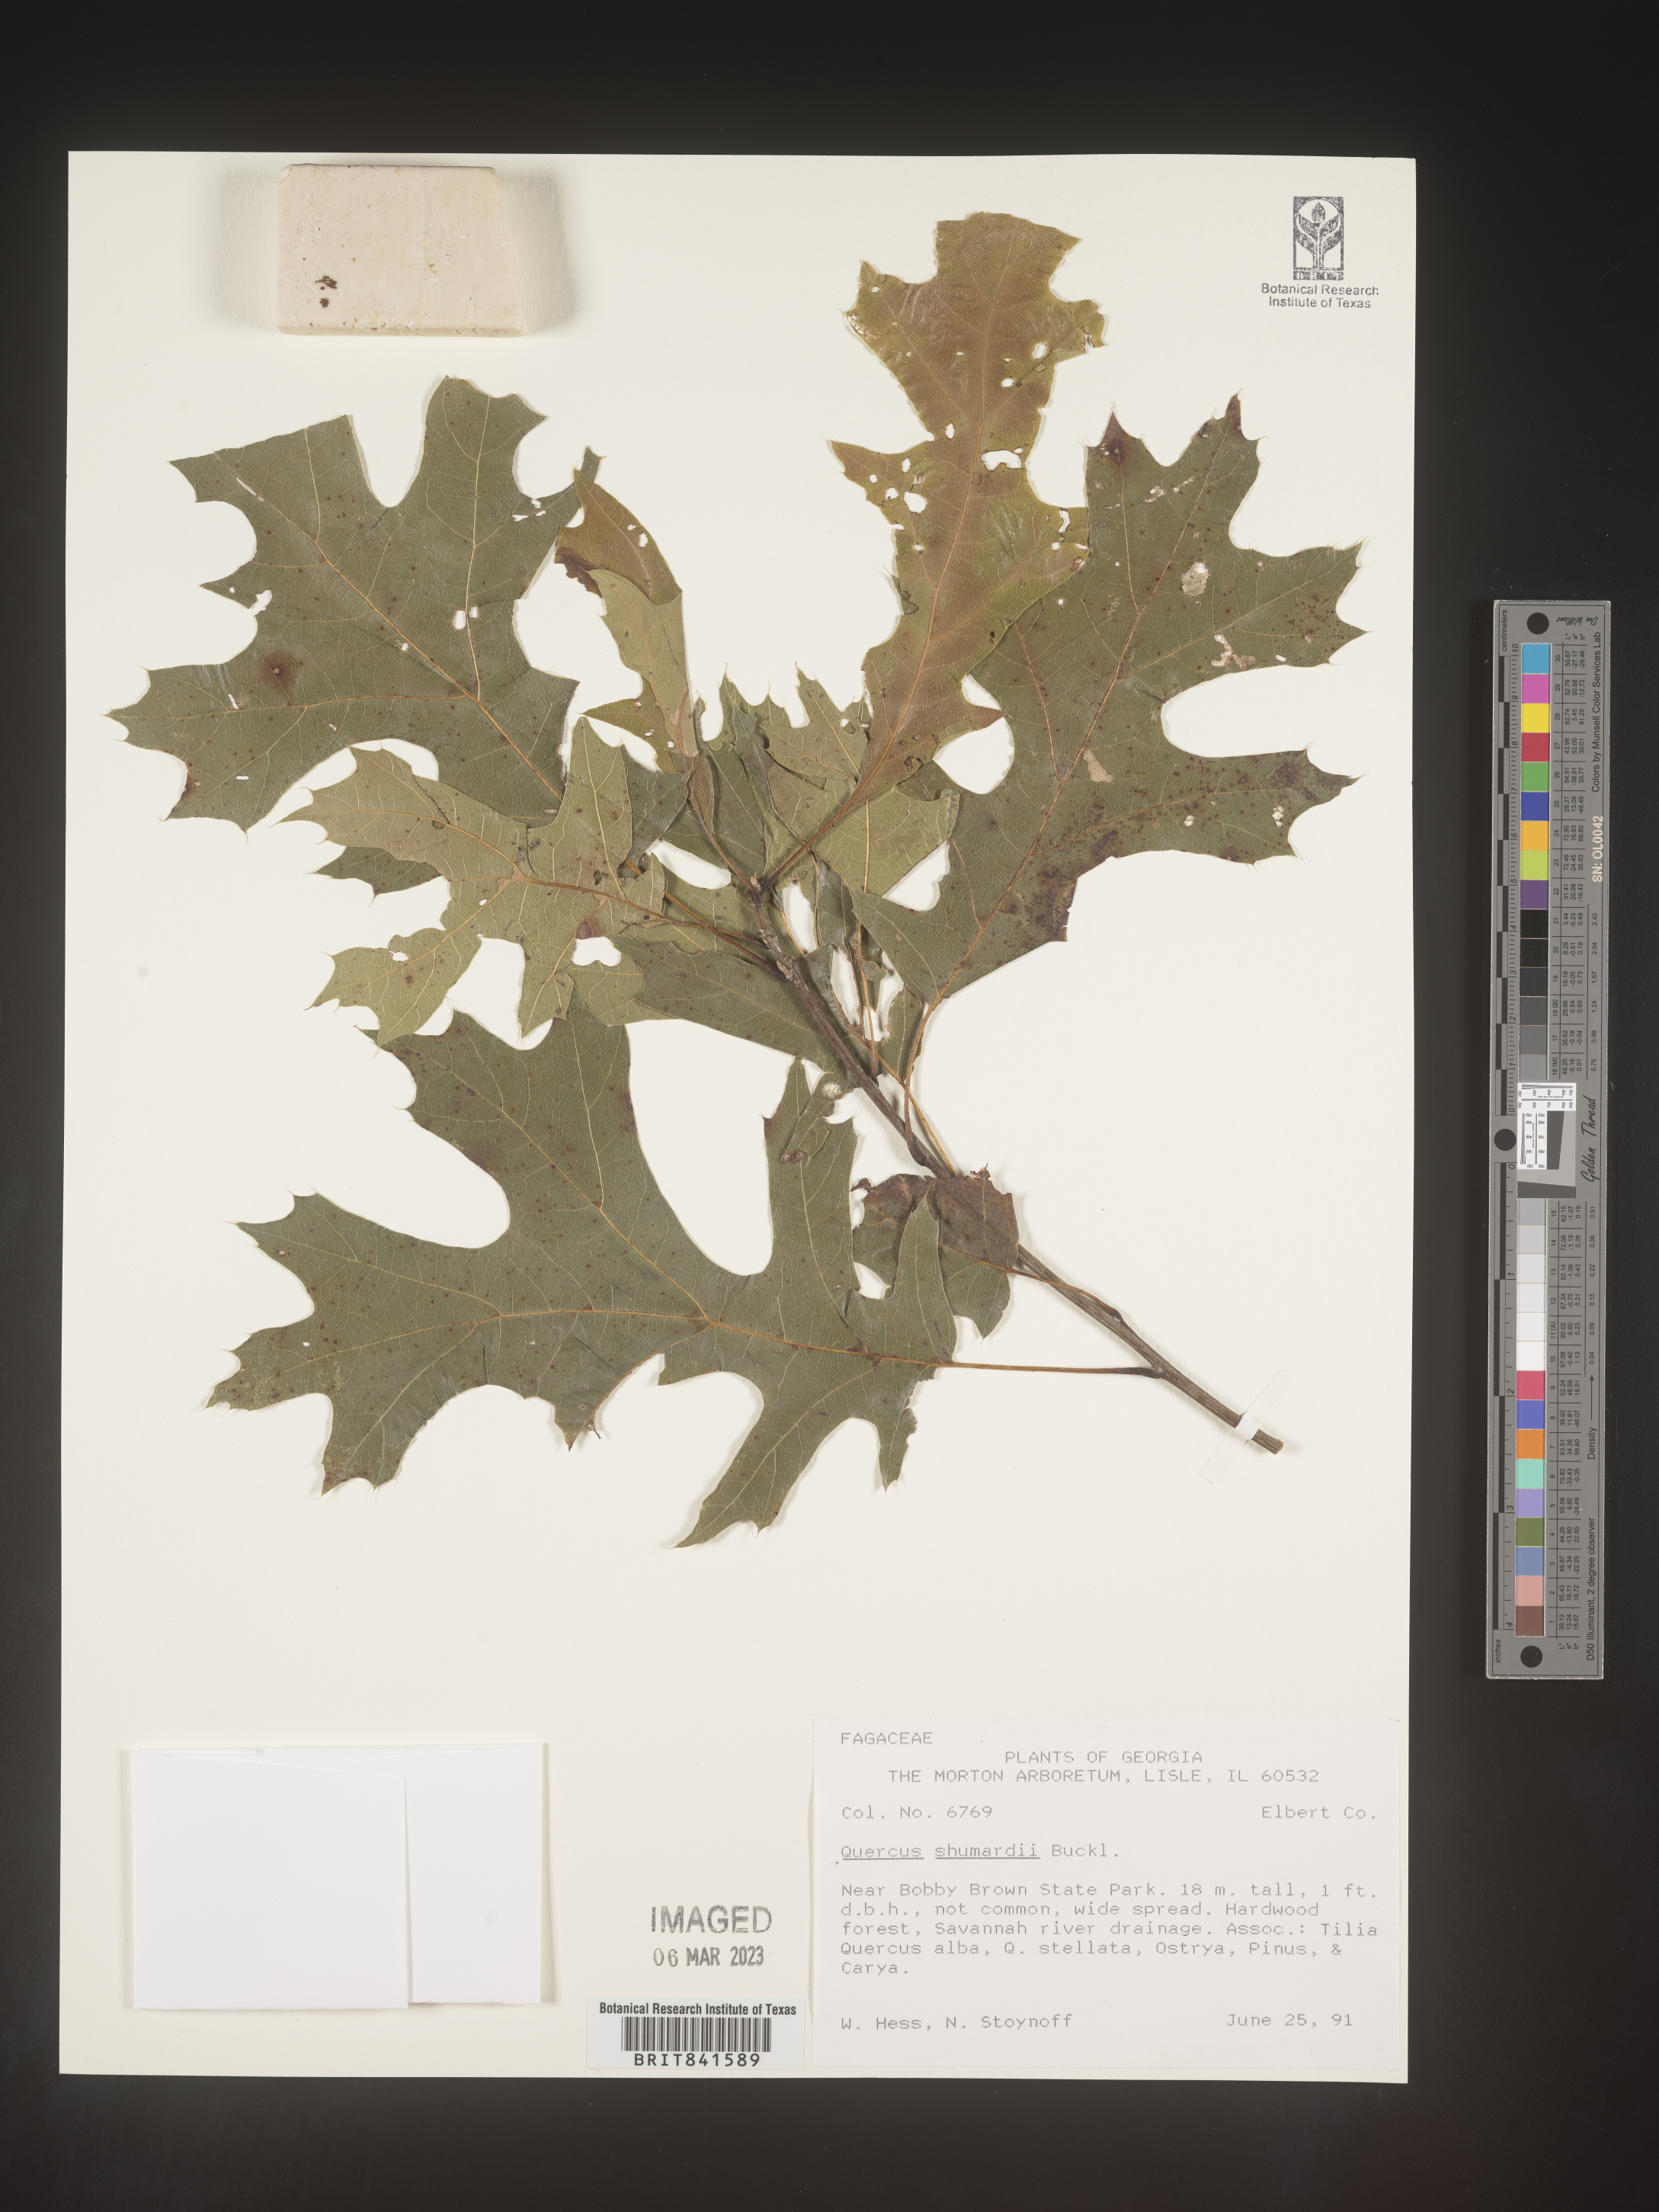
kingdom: Plantae
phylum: Tracheophyta
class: Magnoliopsida
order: Fagales
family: Fagaceae
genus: Quercus
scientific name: Quercus shumardii
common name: Shumard oak
